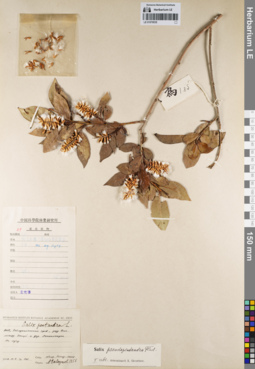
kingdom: Plantae
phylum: Tracheophyta
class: Magnoliopsida
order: Malpighiales
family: Salicaceae
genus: Salix
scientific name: Salix pseudopentandra
